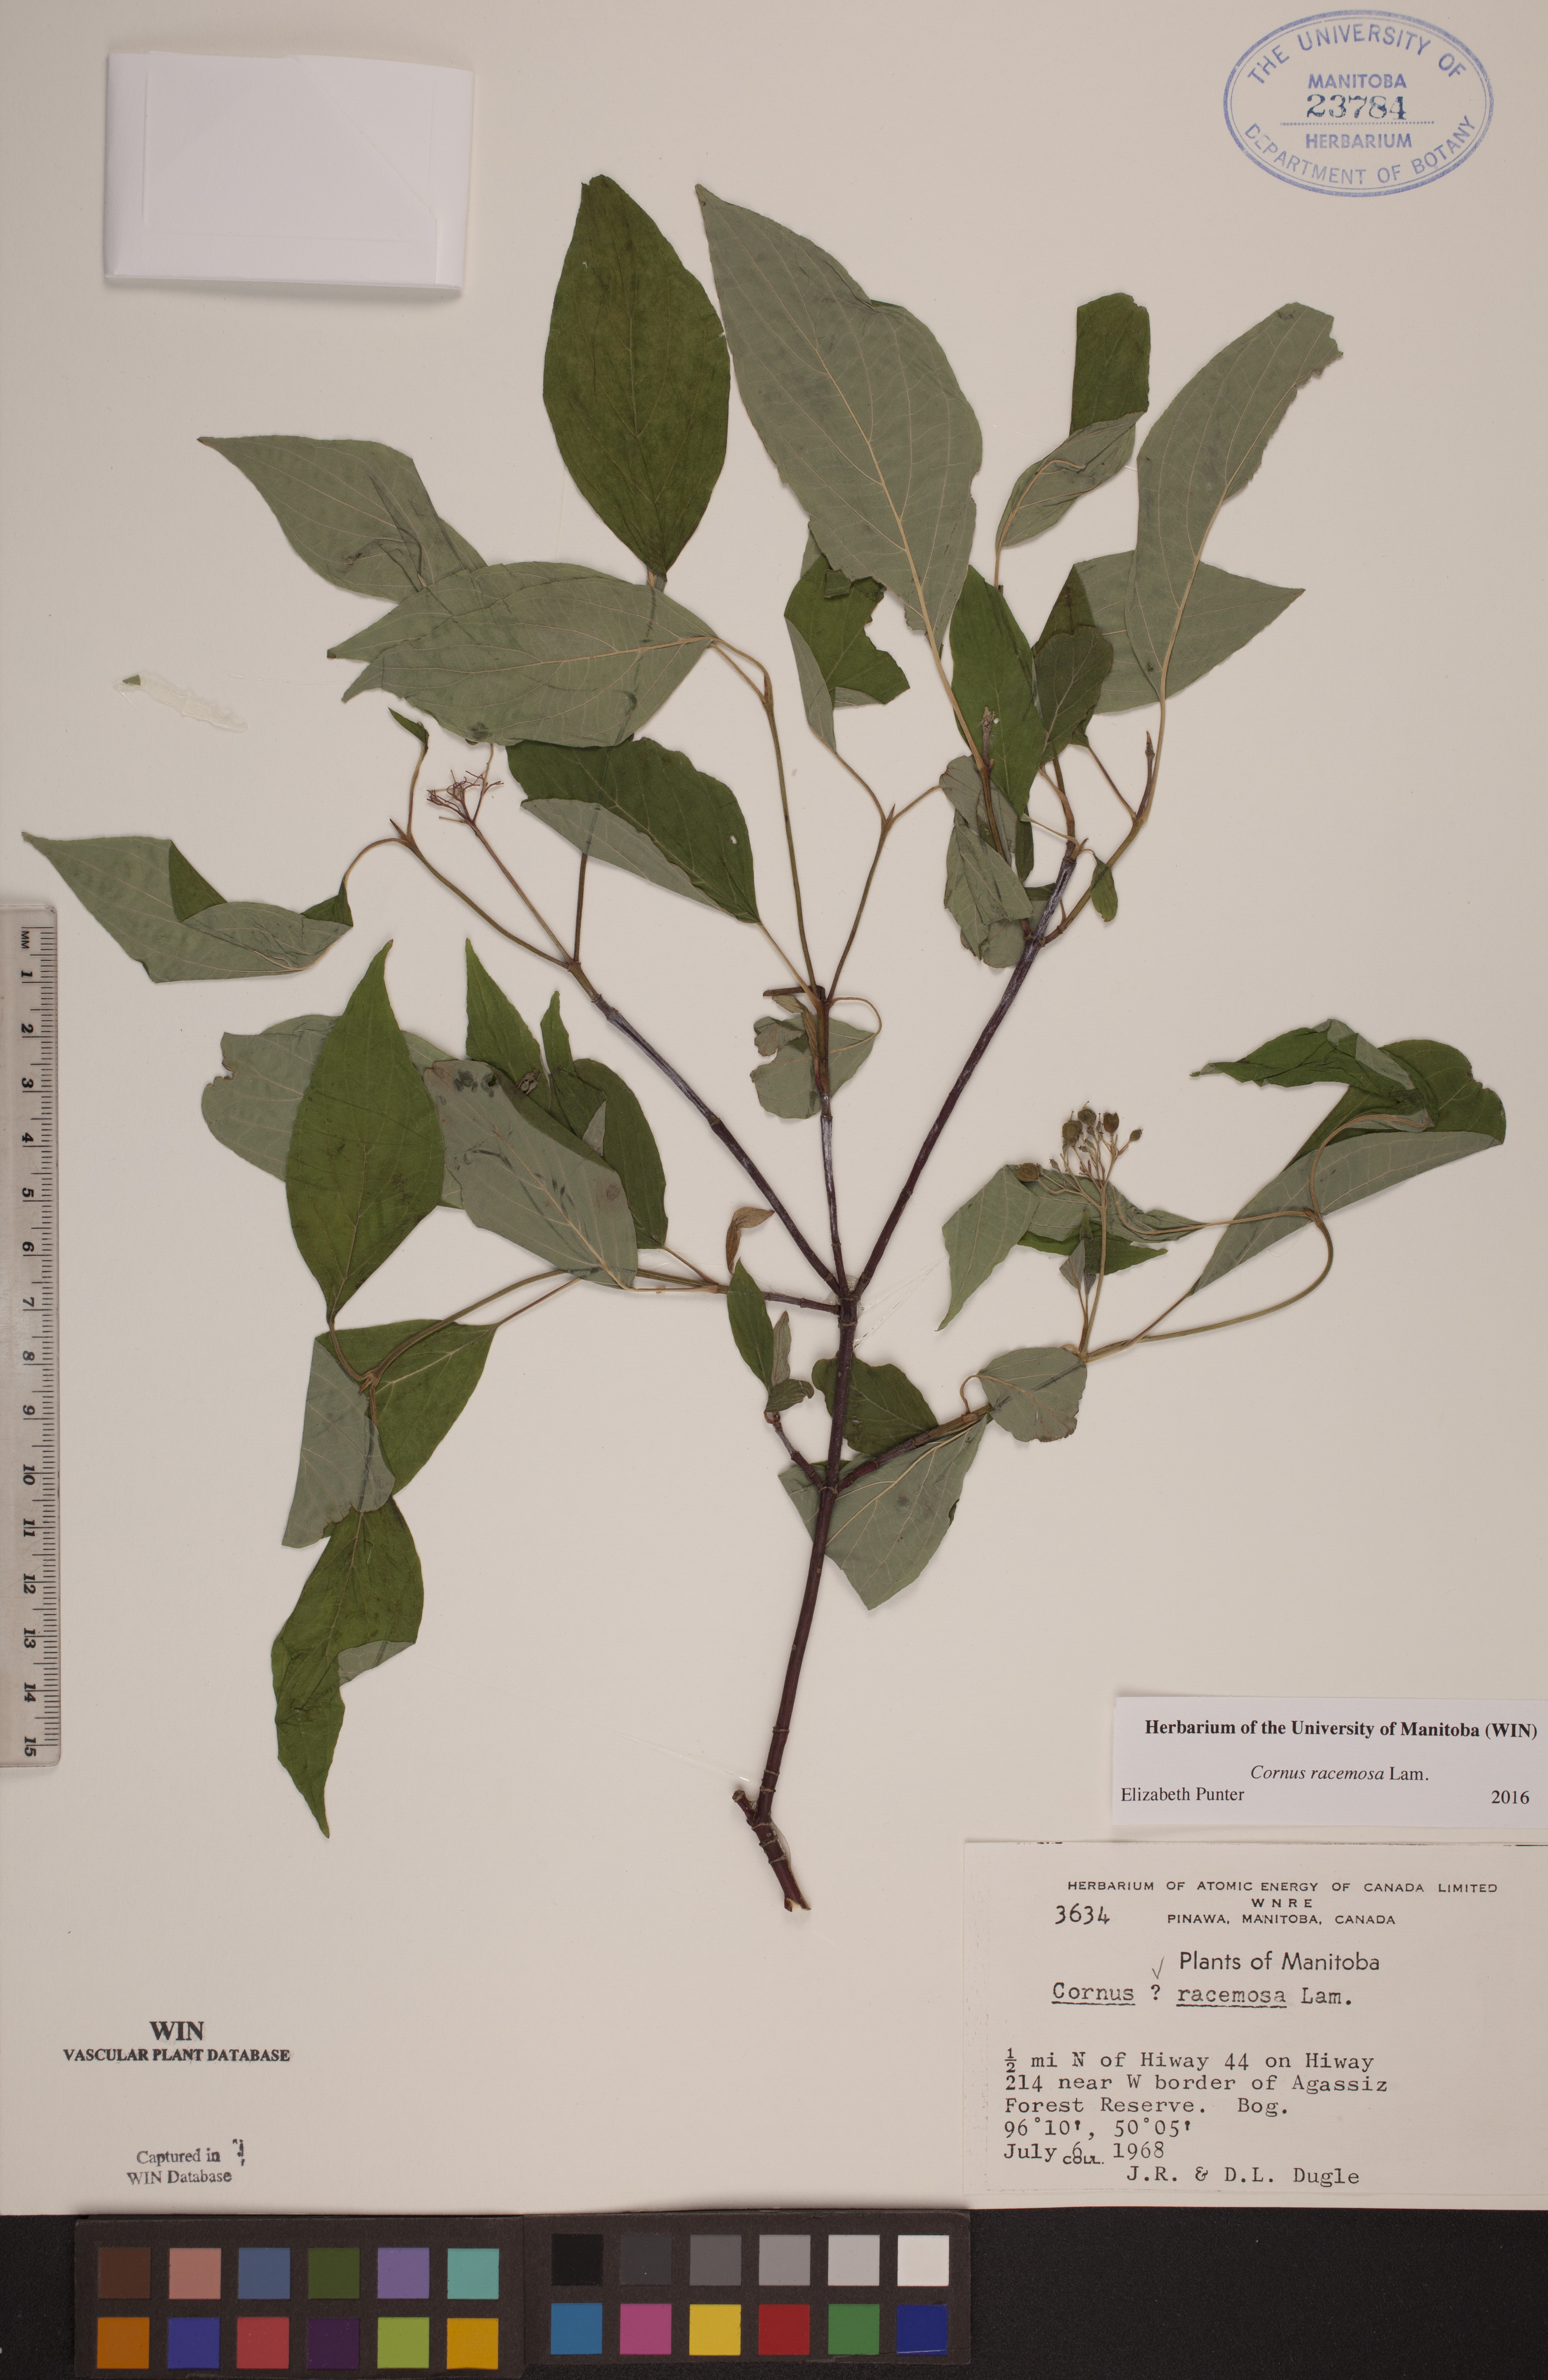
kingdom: Plantae
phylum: Tracheophyta
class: Magnoliopsida
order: Cornales
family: Cornaceae
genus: Cornus
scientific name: Cornus racemosa
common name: Panicled dogwood
